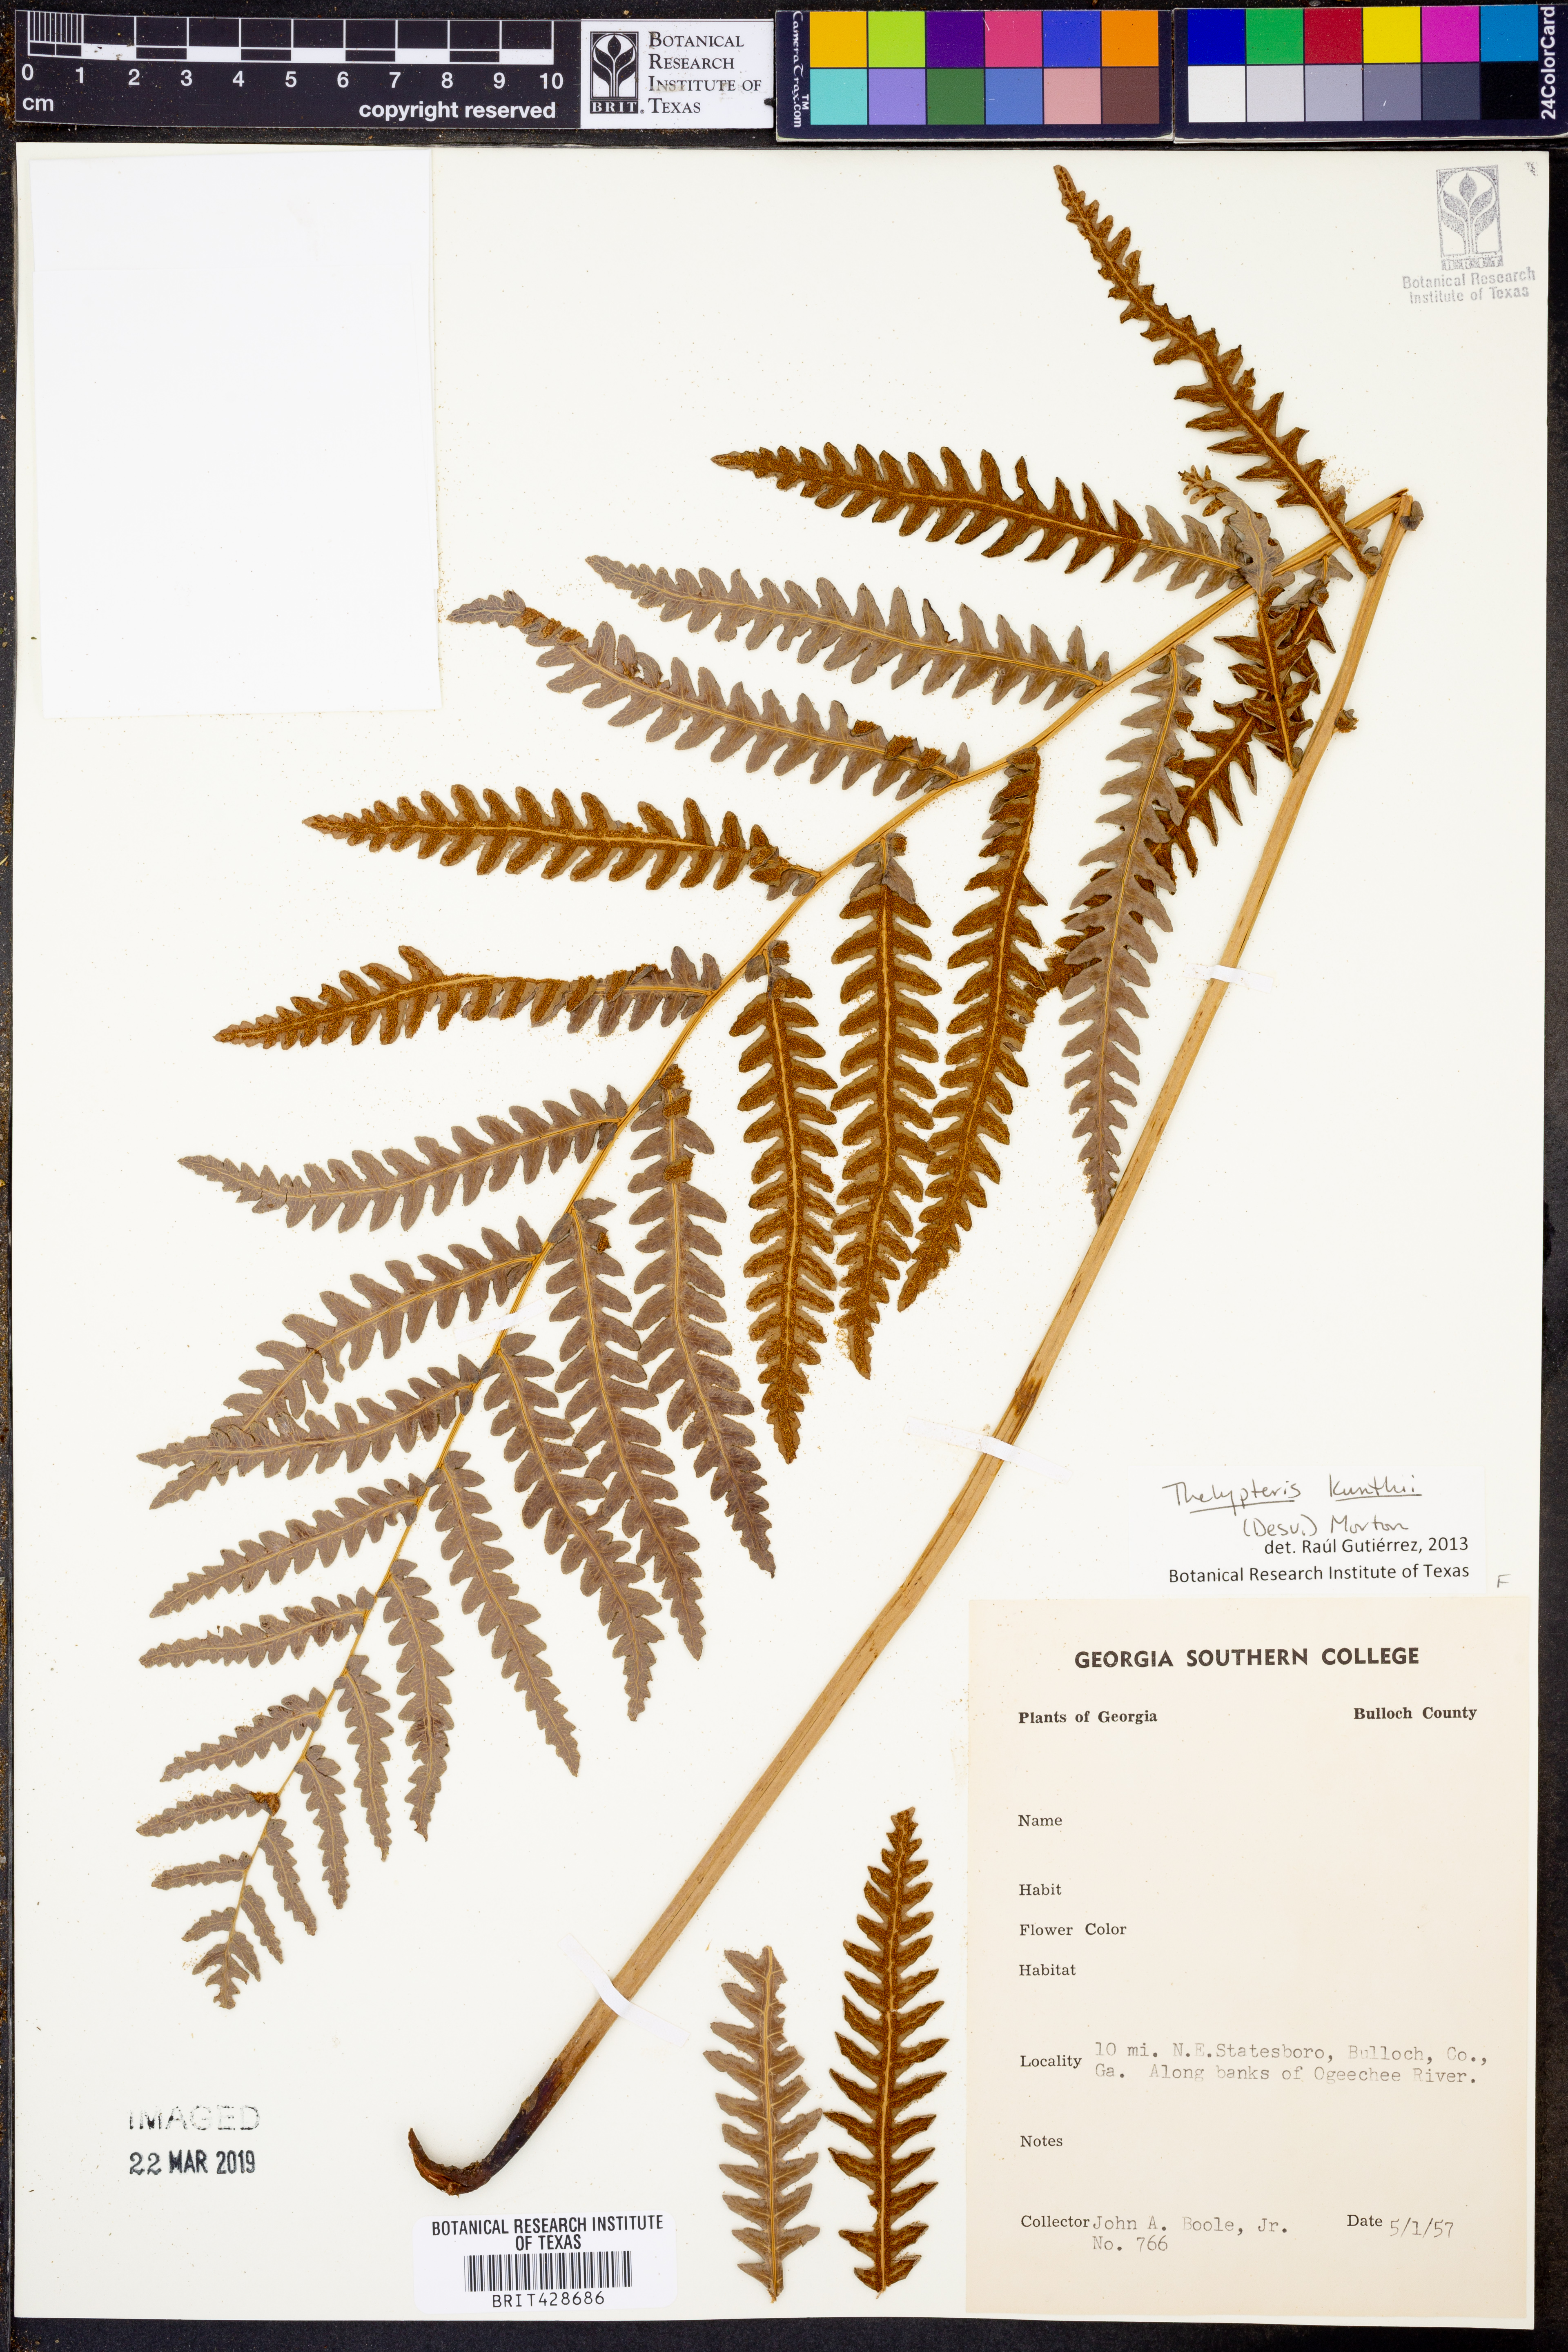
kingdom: Plantae
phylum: Tracheophyta
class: Polypodiopsida
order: Polypodiales
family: Thelypteridaceae
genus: Pelazoneuron
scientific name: Pelazoneuron kunthii
